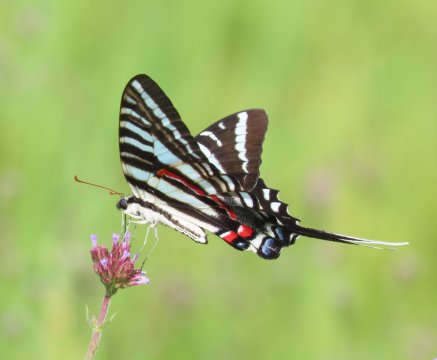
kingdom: Animalia
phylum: Arthropoda
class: Insecta
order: Lepidoptera
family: Papilionidae
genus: Protographium
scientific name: Protographium marcellus
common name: Zebra Swallowtail
